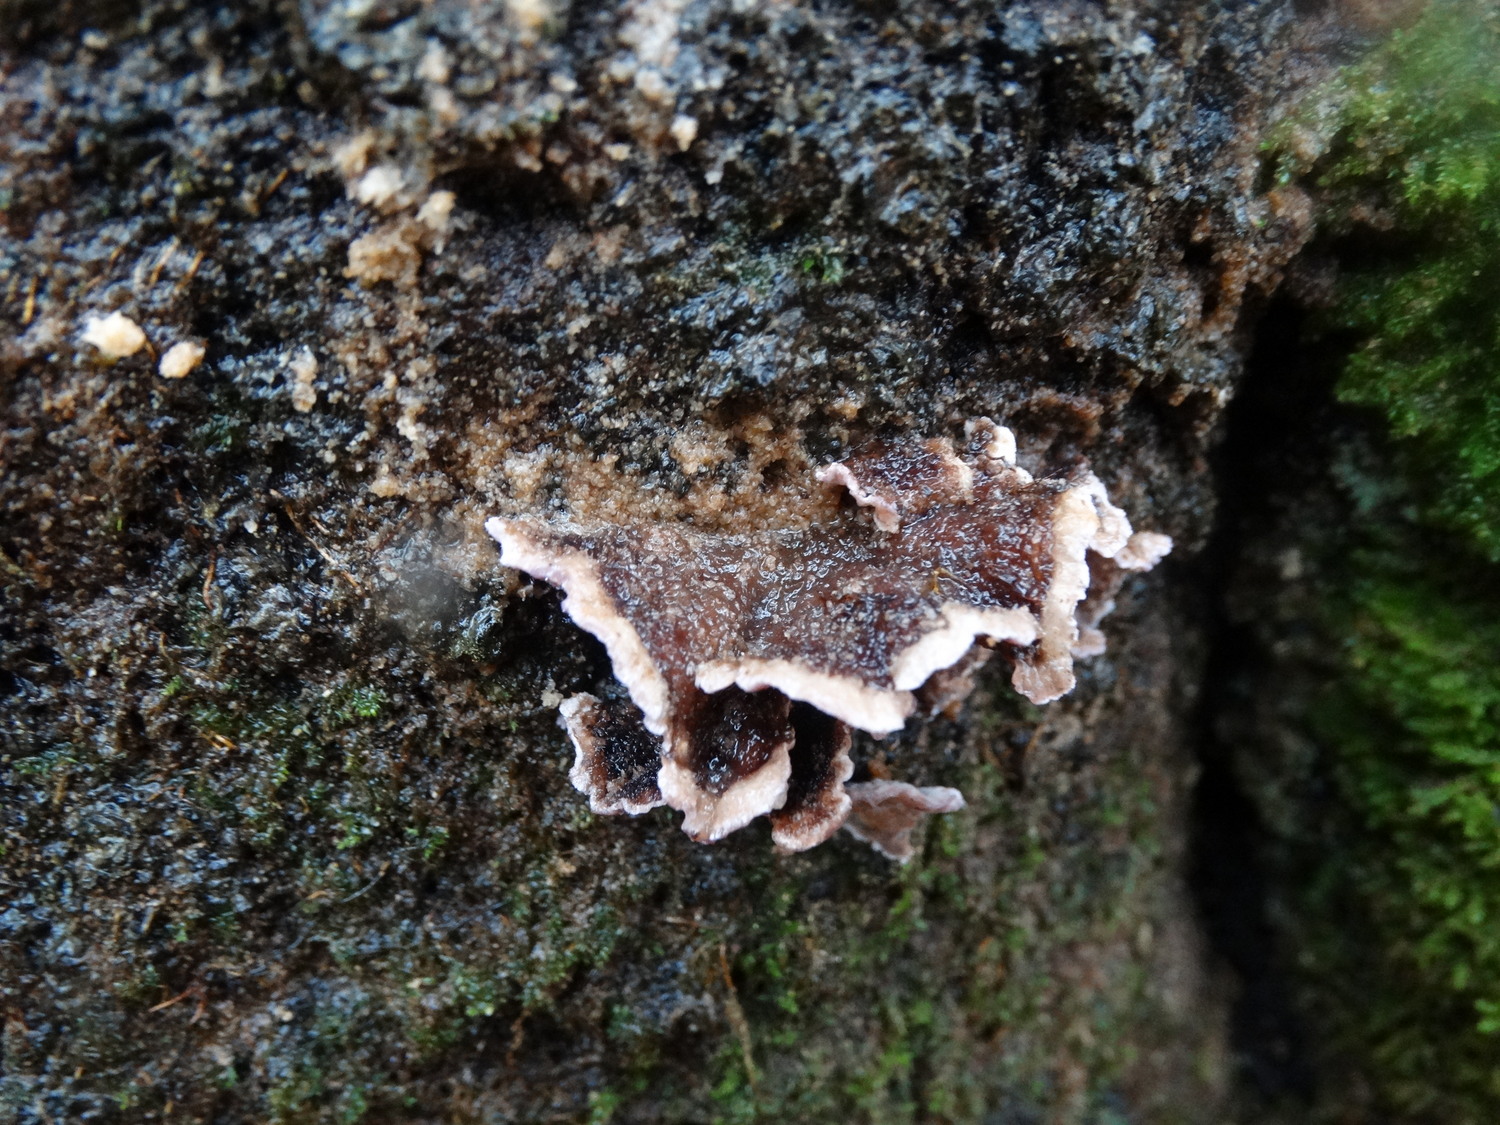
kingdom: Fungi
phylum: Basidiomycota
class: Agaricomycetes
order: Agaricales
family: Cyphellaceae
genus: Chondrostereum
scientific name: Chondrostereum purpureum
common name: purpurlædersvamp
